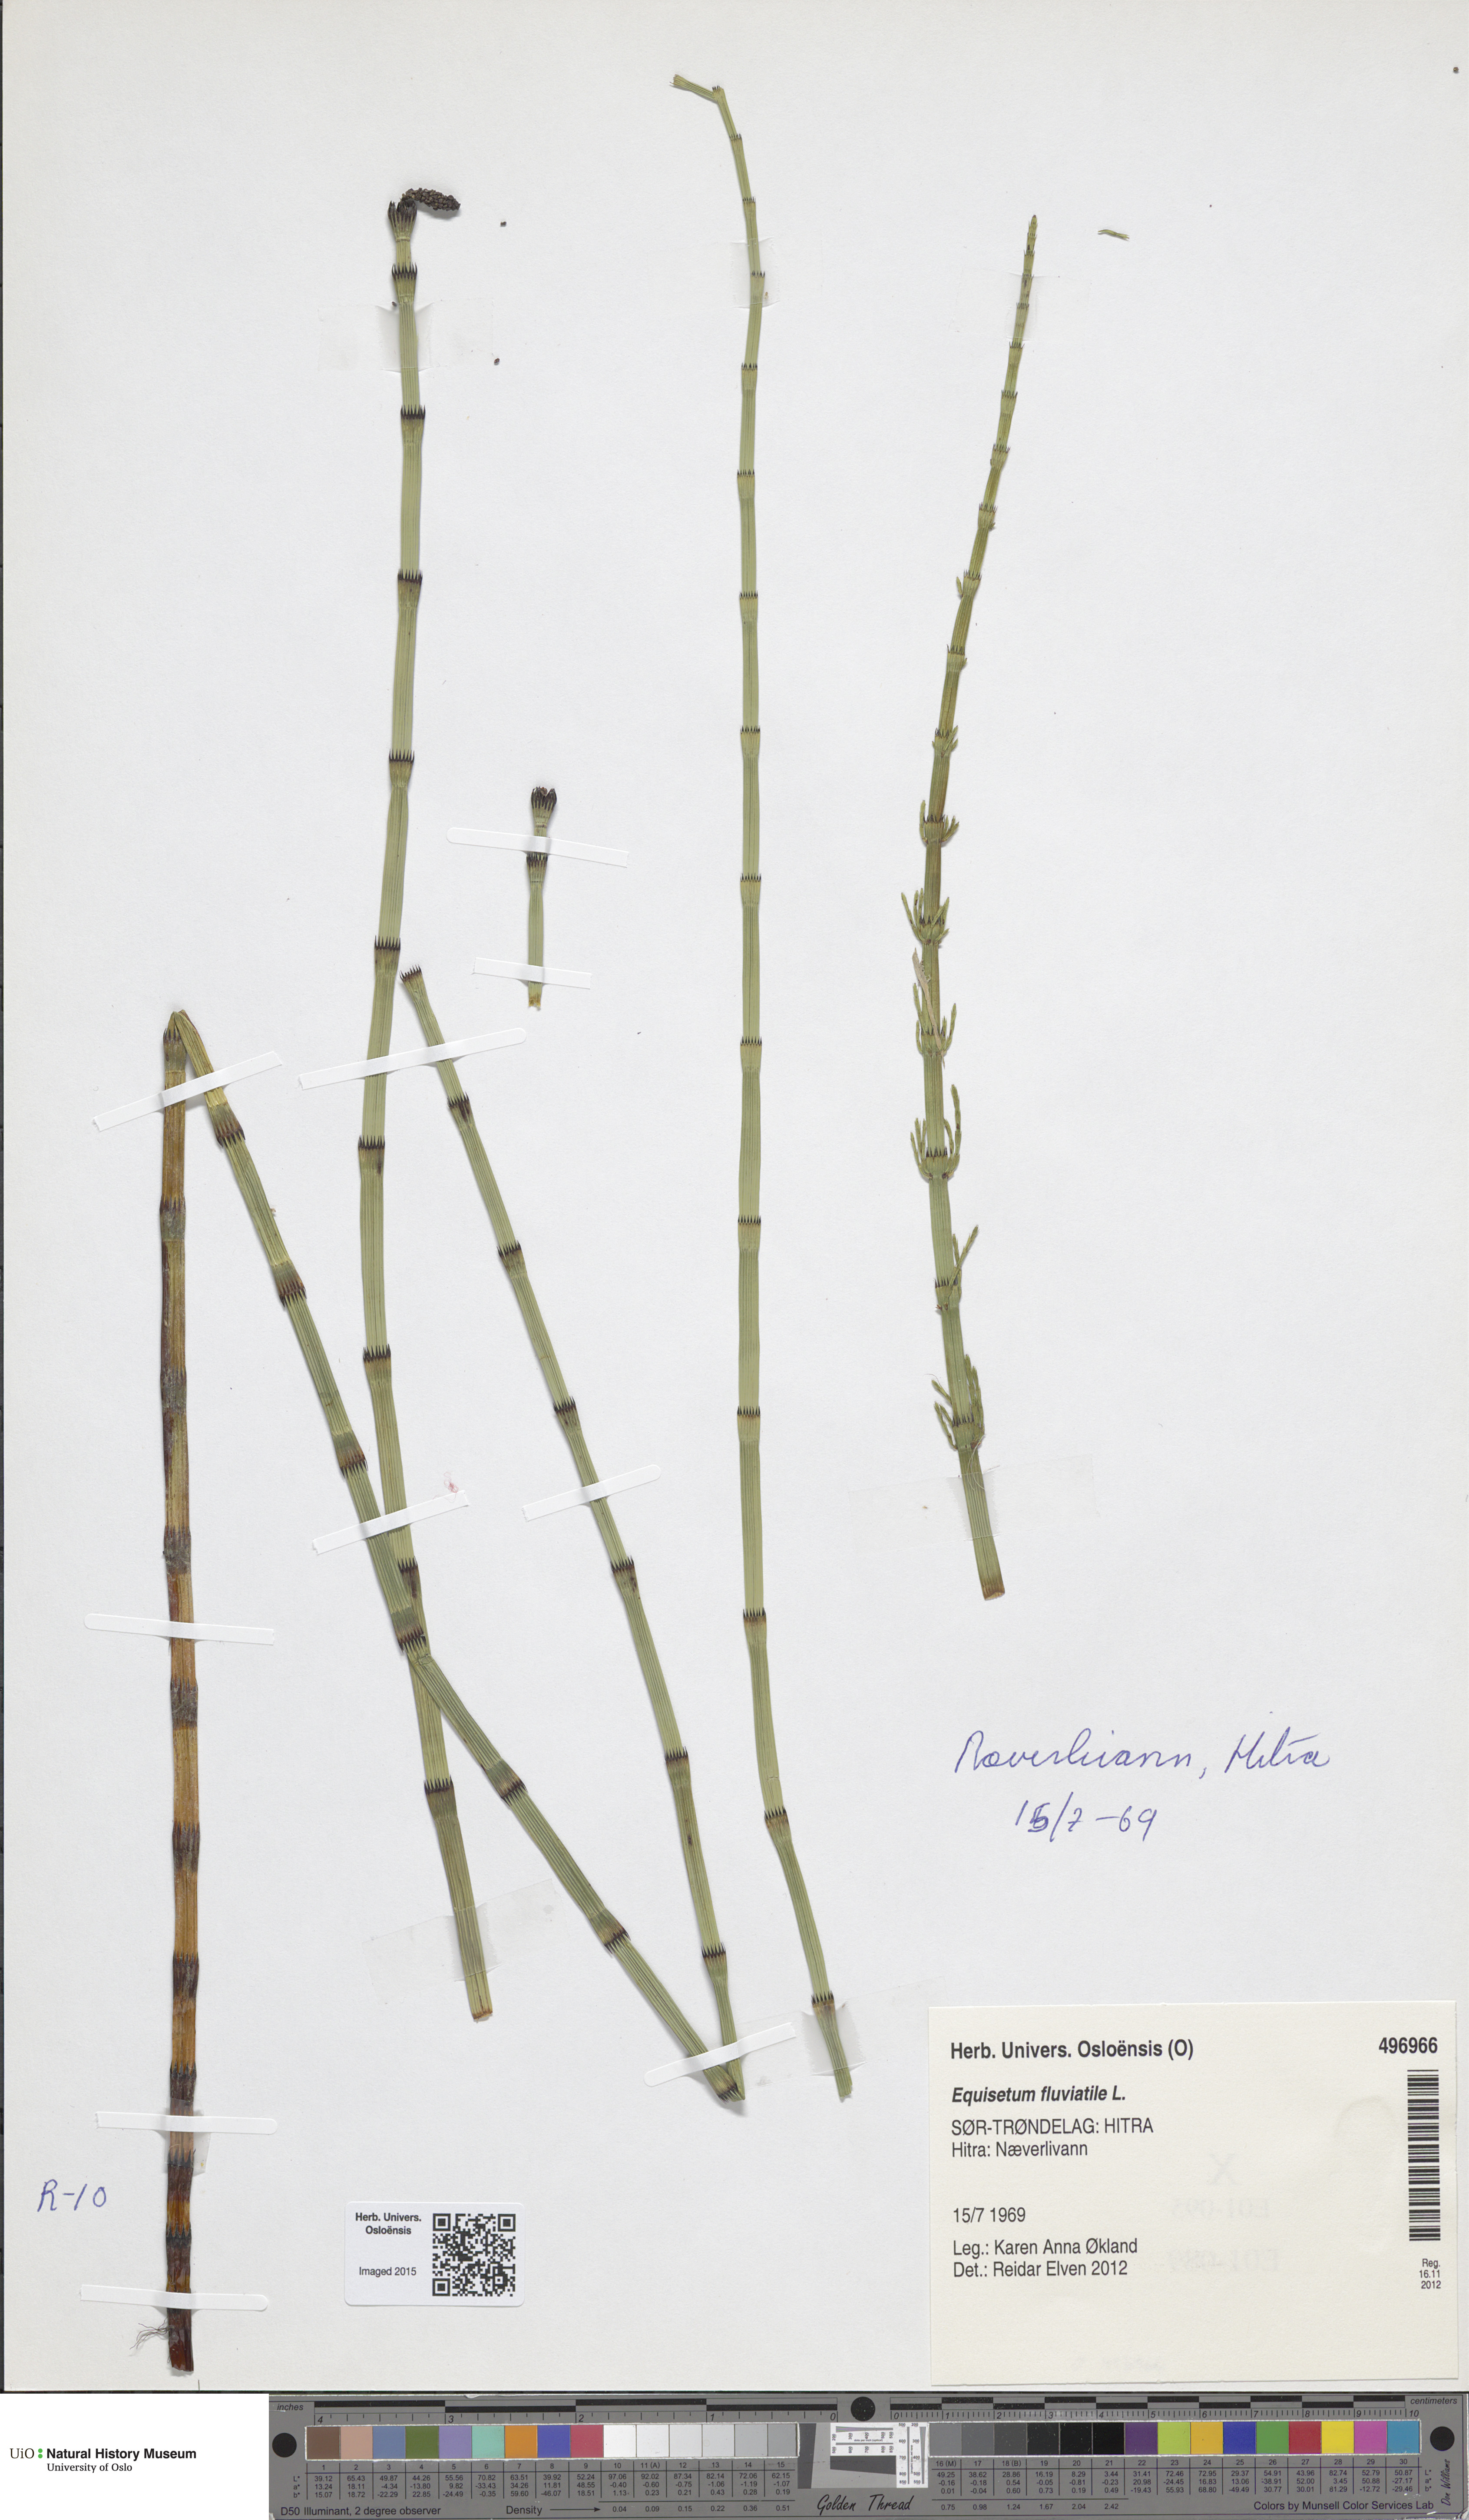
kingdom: Plantae
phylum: Tracheophyta
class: Polypodiopsida
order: Equisetales
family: Equisetaceae
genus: Equisetum
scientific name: Equisetum fluviatile
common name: Water horsetail
